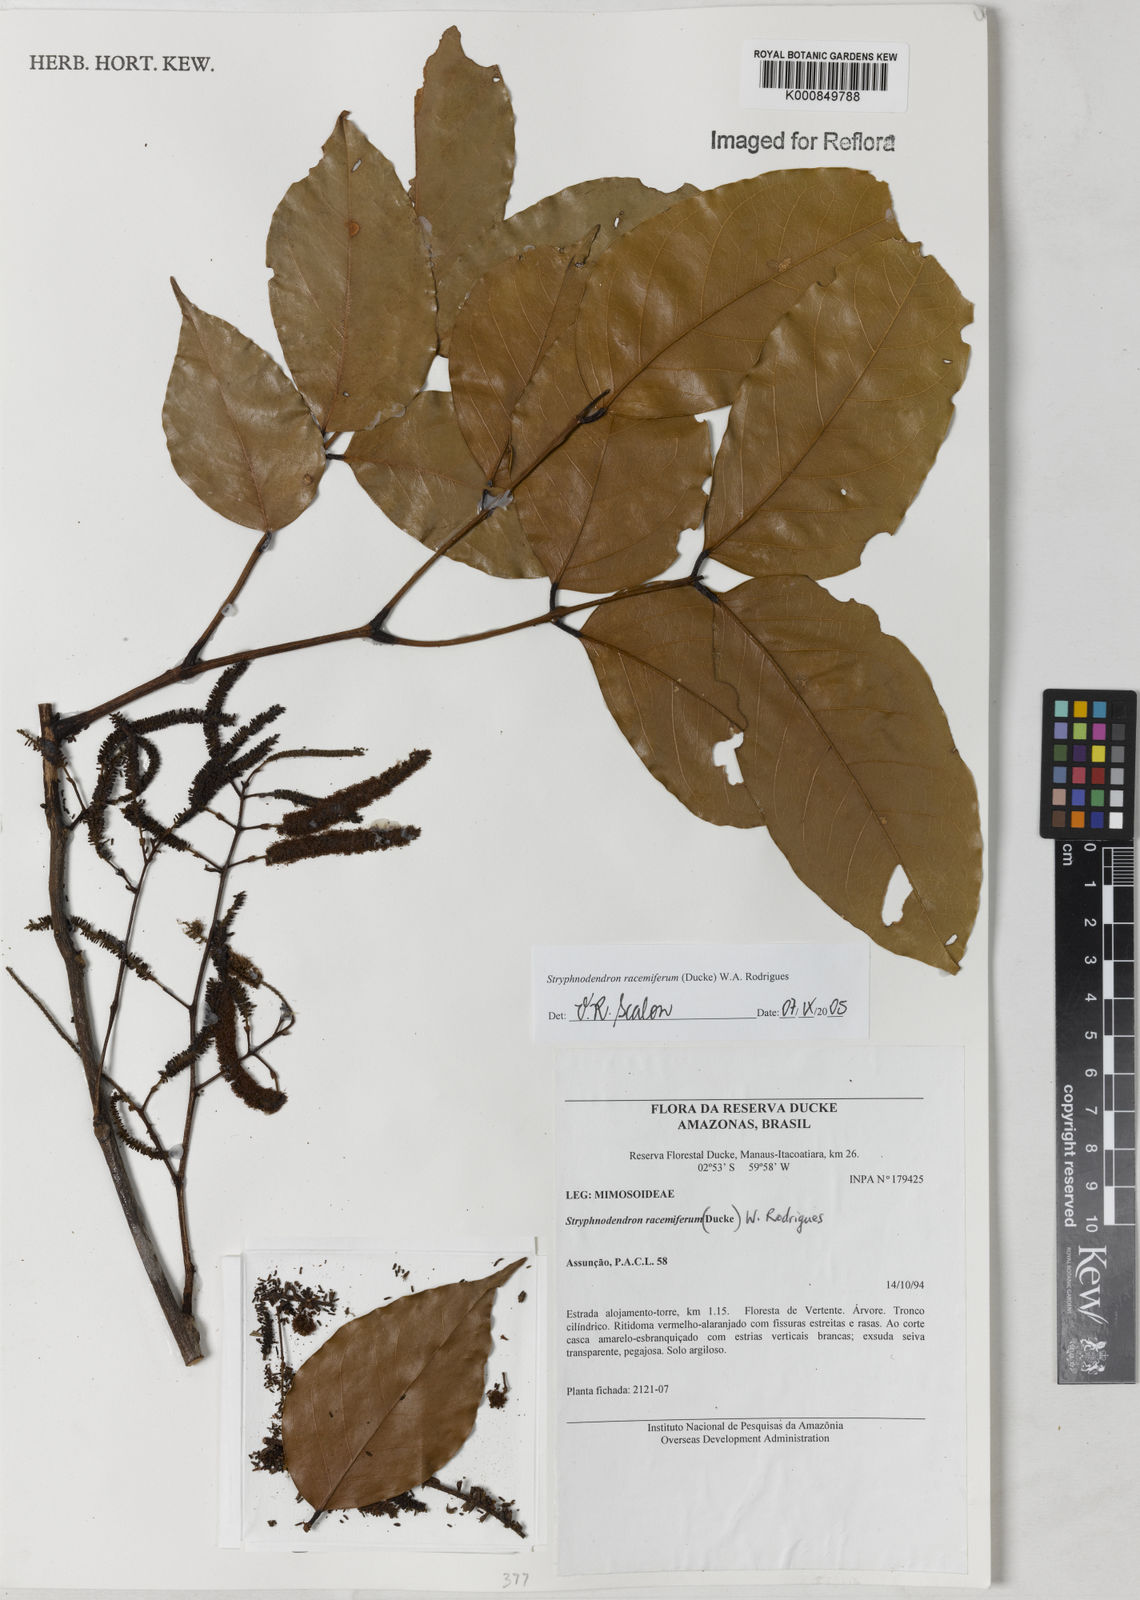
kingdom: Plantae
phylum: Tracheophyta
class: Magnoliopsida
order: Fabales
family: Fabaceae
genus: Stryphnodendron
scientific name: Stryphnodendron
